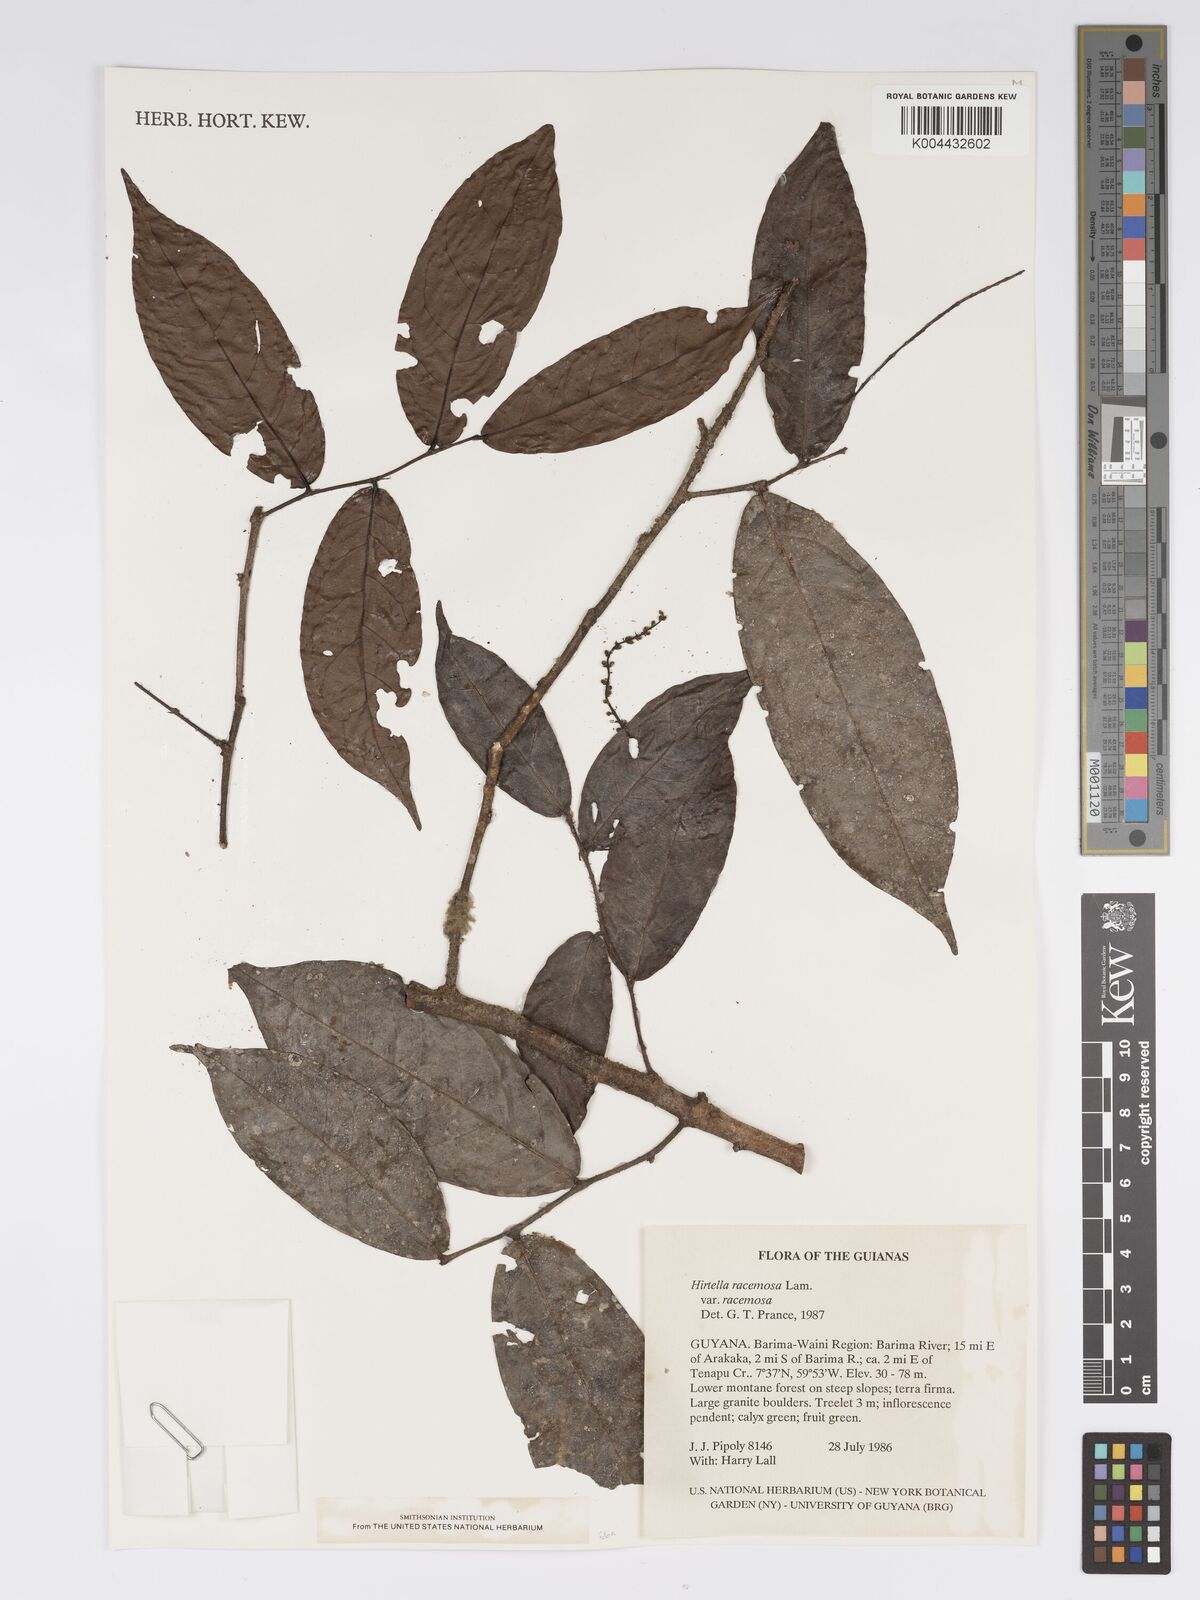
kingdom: Plantae
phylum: Tracheophyta
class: Magnoliopsida
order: Malpighiales
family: Chrysobalanaceae
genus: Hirtella
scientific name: Hirtella racemosa
